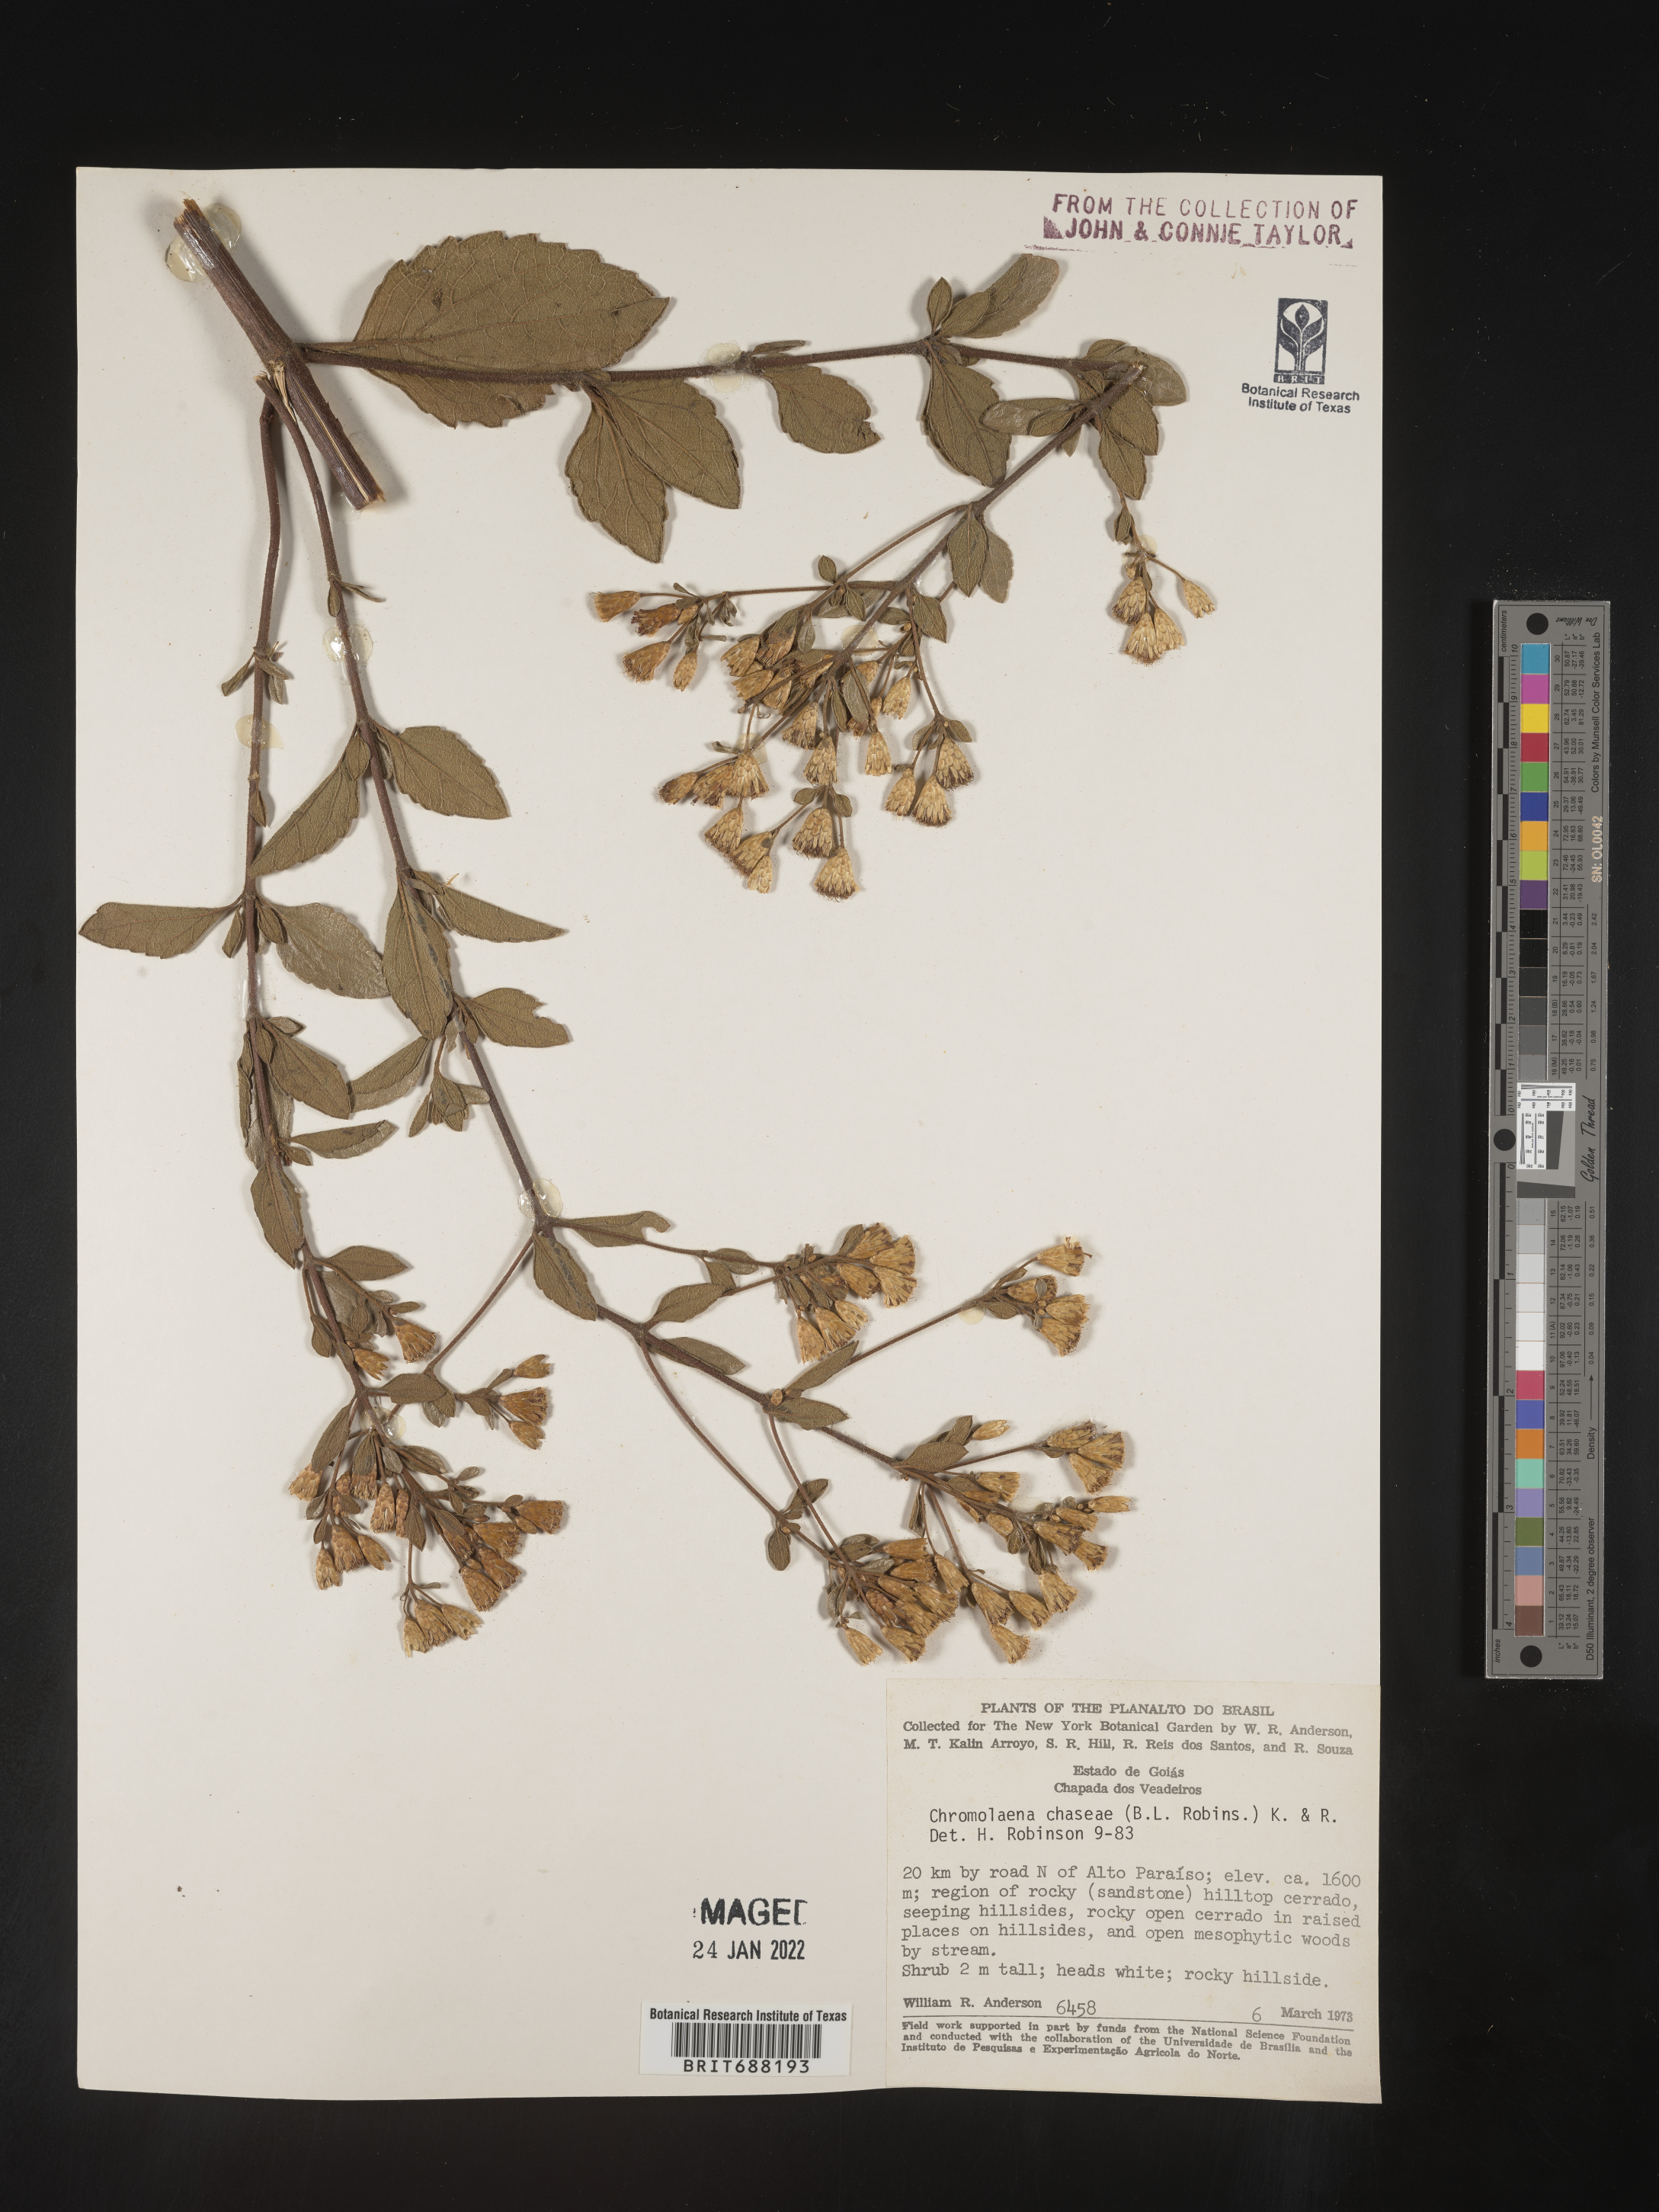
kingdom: Plantae
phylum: Tracheophyta
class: Magnoliopsida
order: Asterales
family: Asteraceae
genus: Chromolaena
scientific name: Chromolaena
